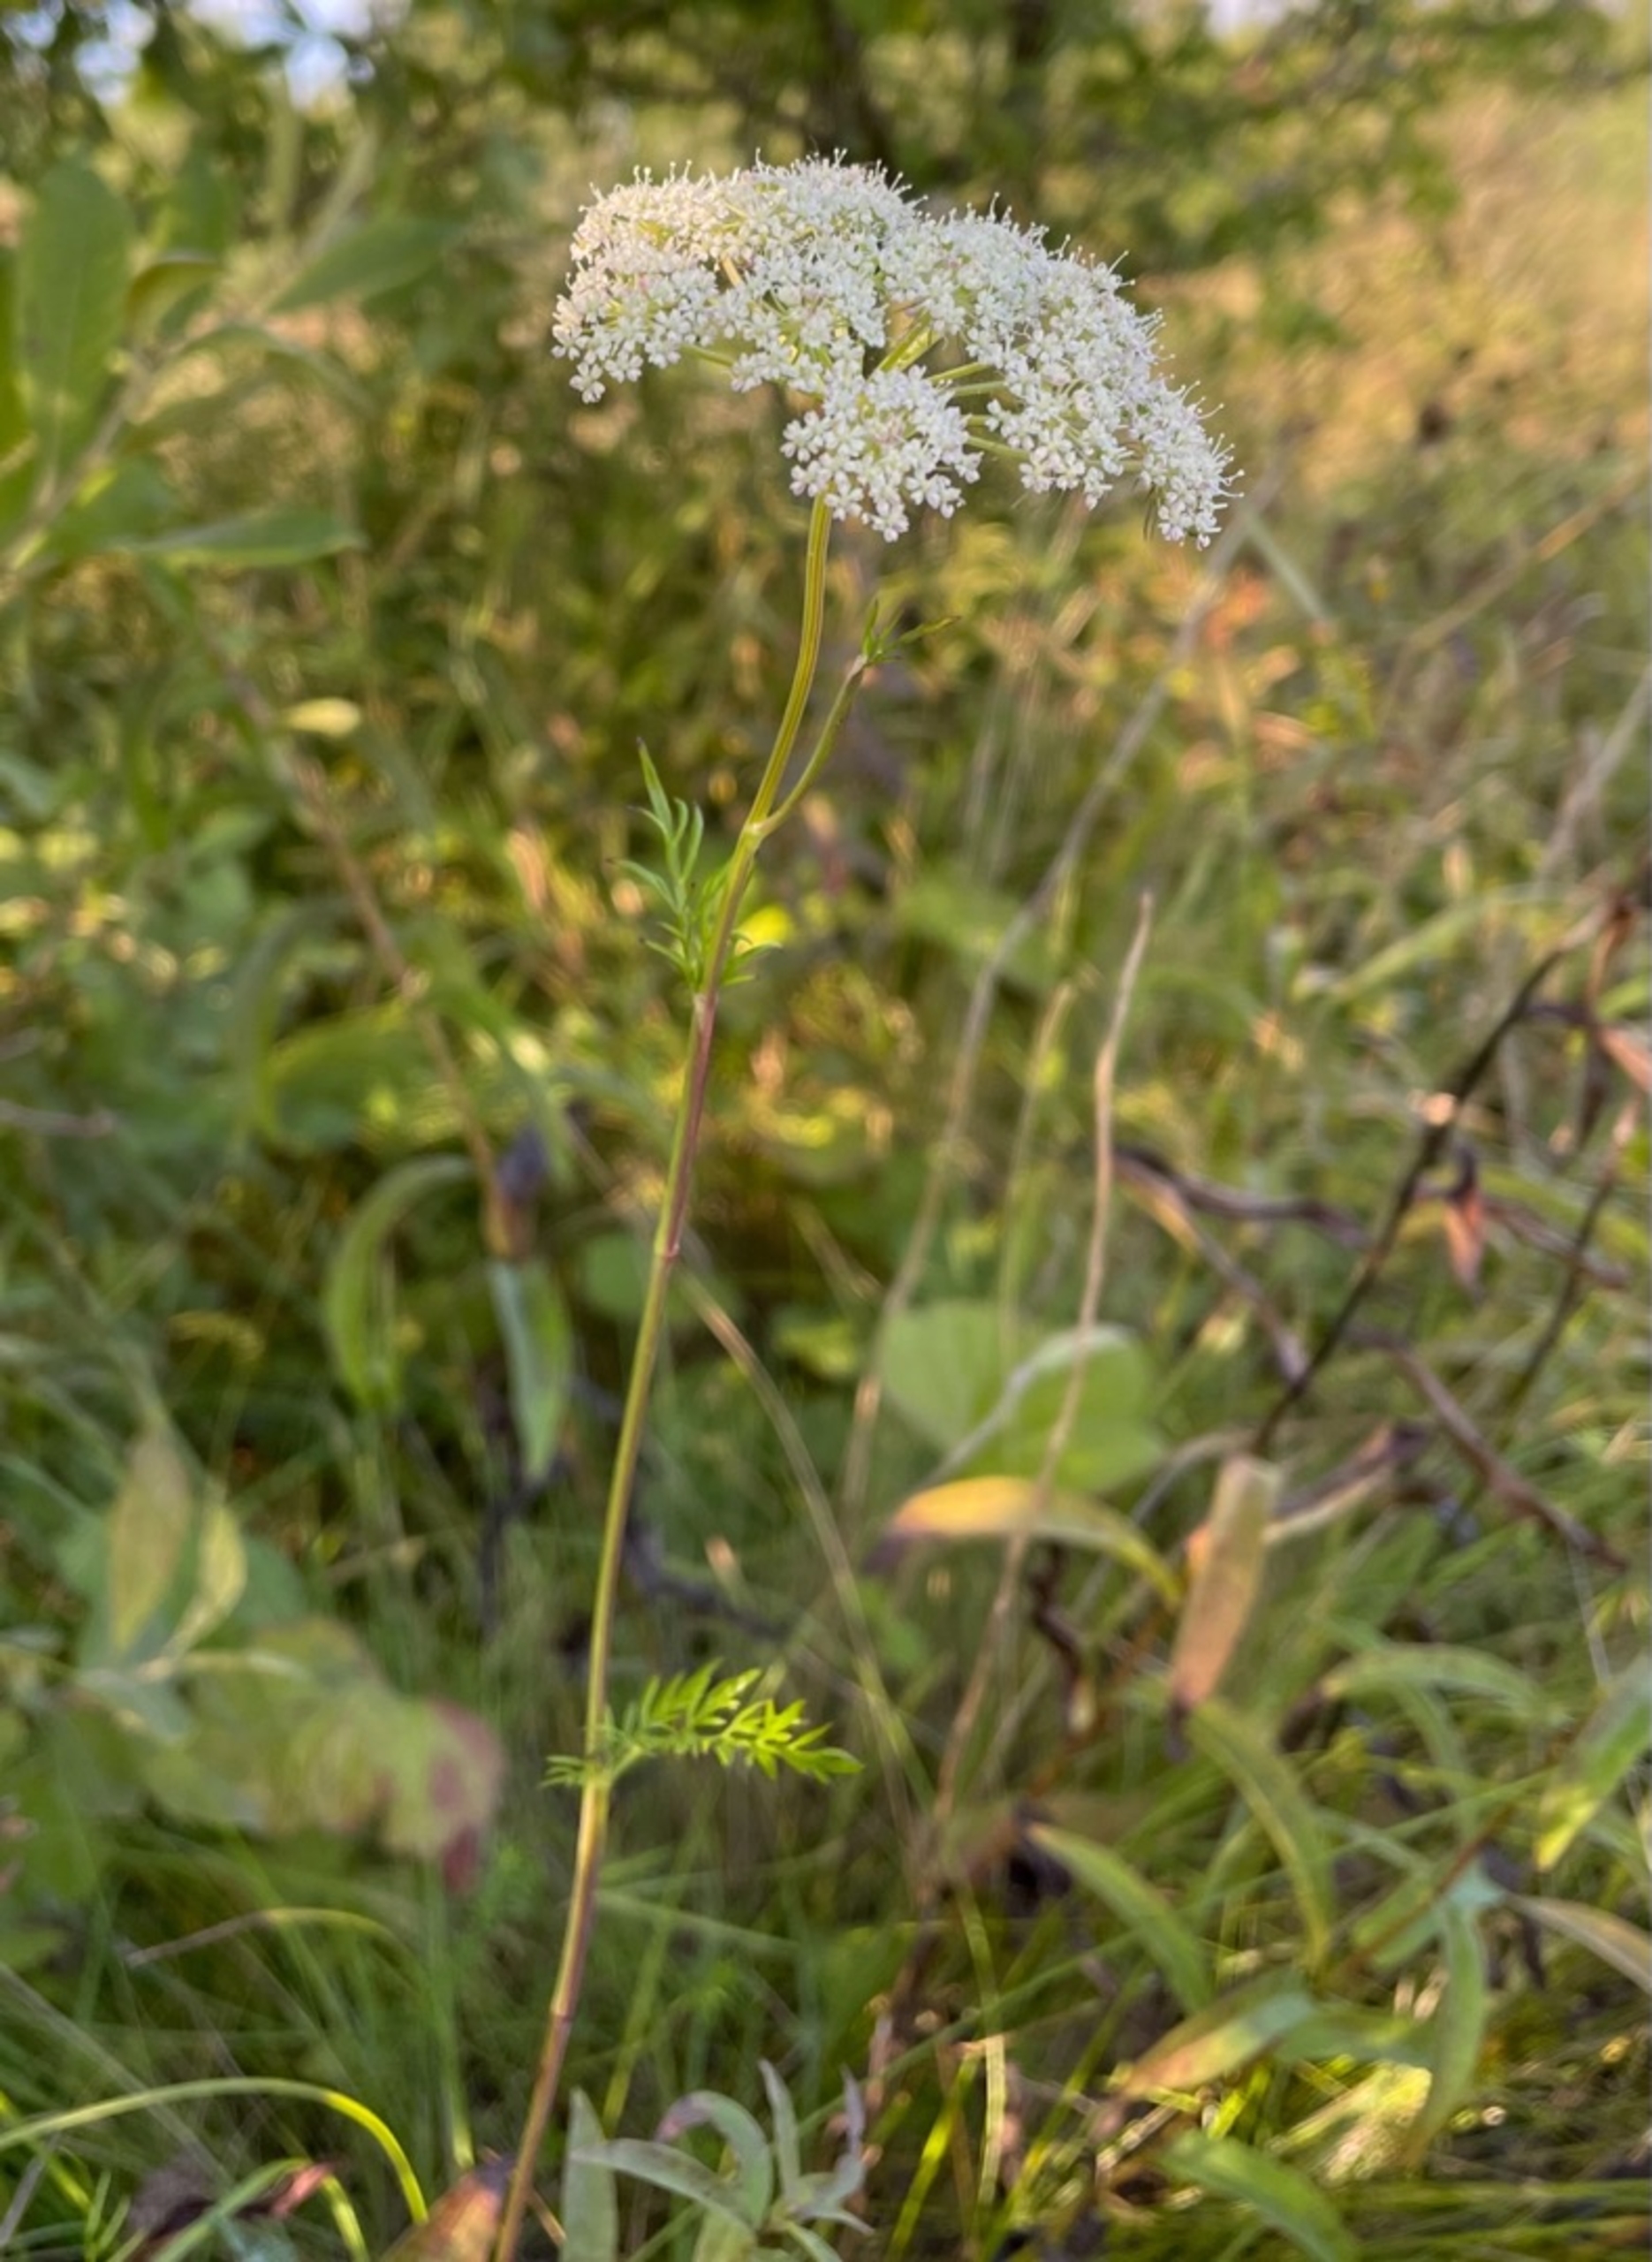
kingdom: Plantae
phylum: Tracheophyta
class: Magnoliopsida
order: Apiales
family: Apiaceae
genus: Kadenia
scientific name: Kadenia dubia
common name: Brændeskærm
